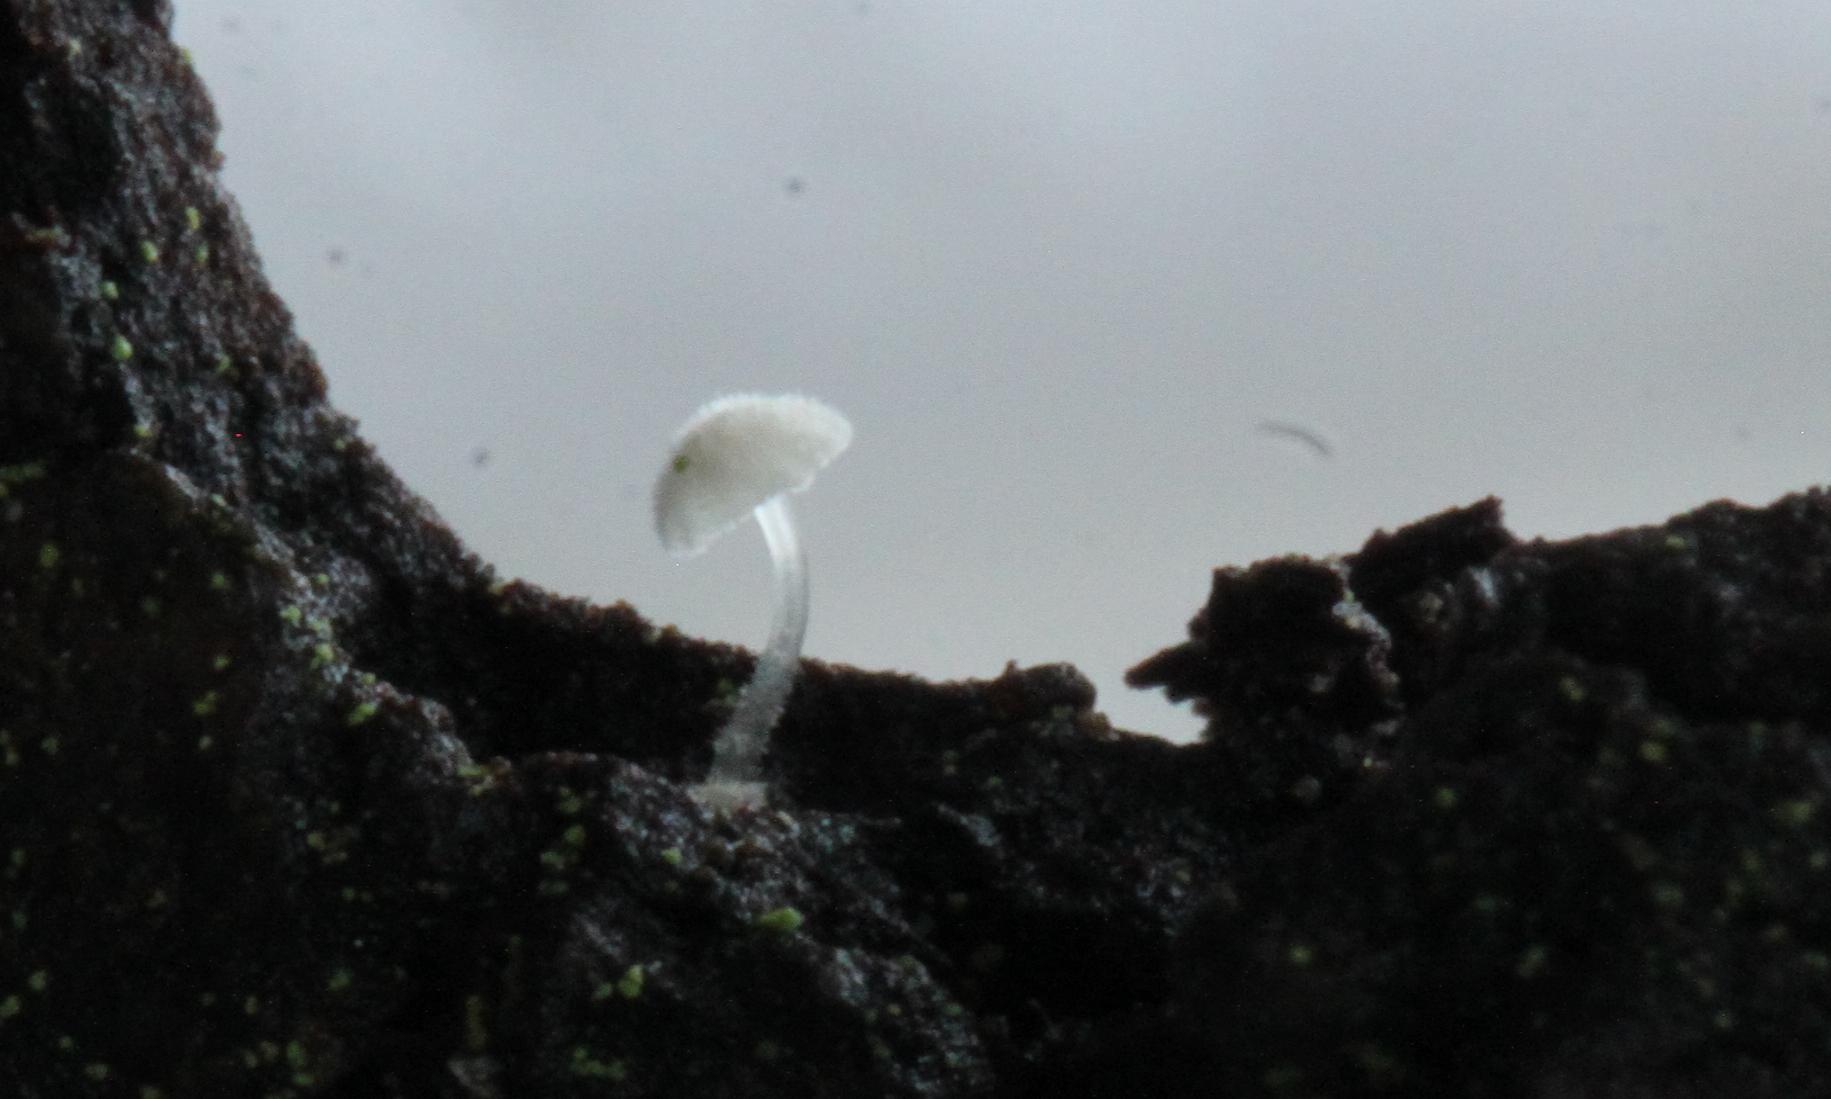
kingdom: Fungi
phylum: Basidiomycota
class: Agaricomycetes
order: Agaricales
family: Mycenaceae
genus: Mycena
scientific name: Mycena clavularis
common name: dunskivet huesvamp
